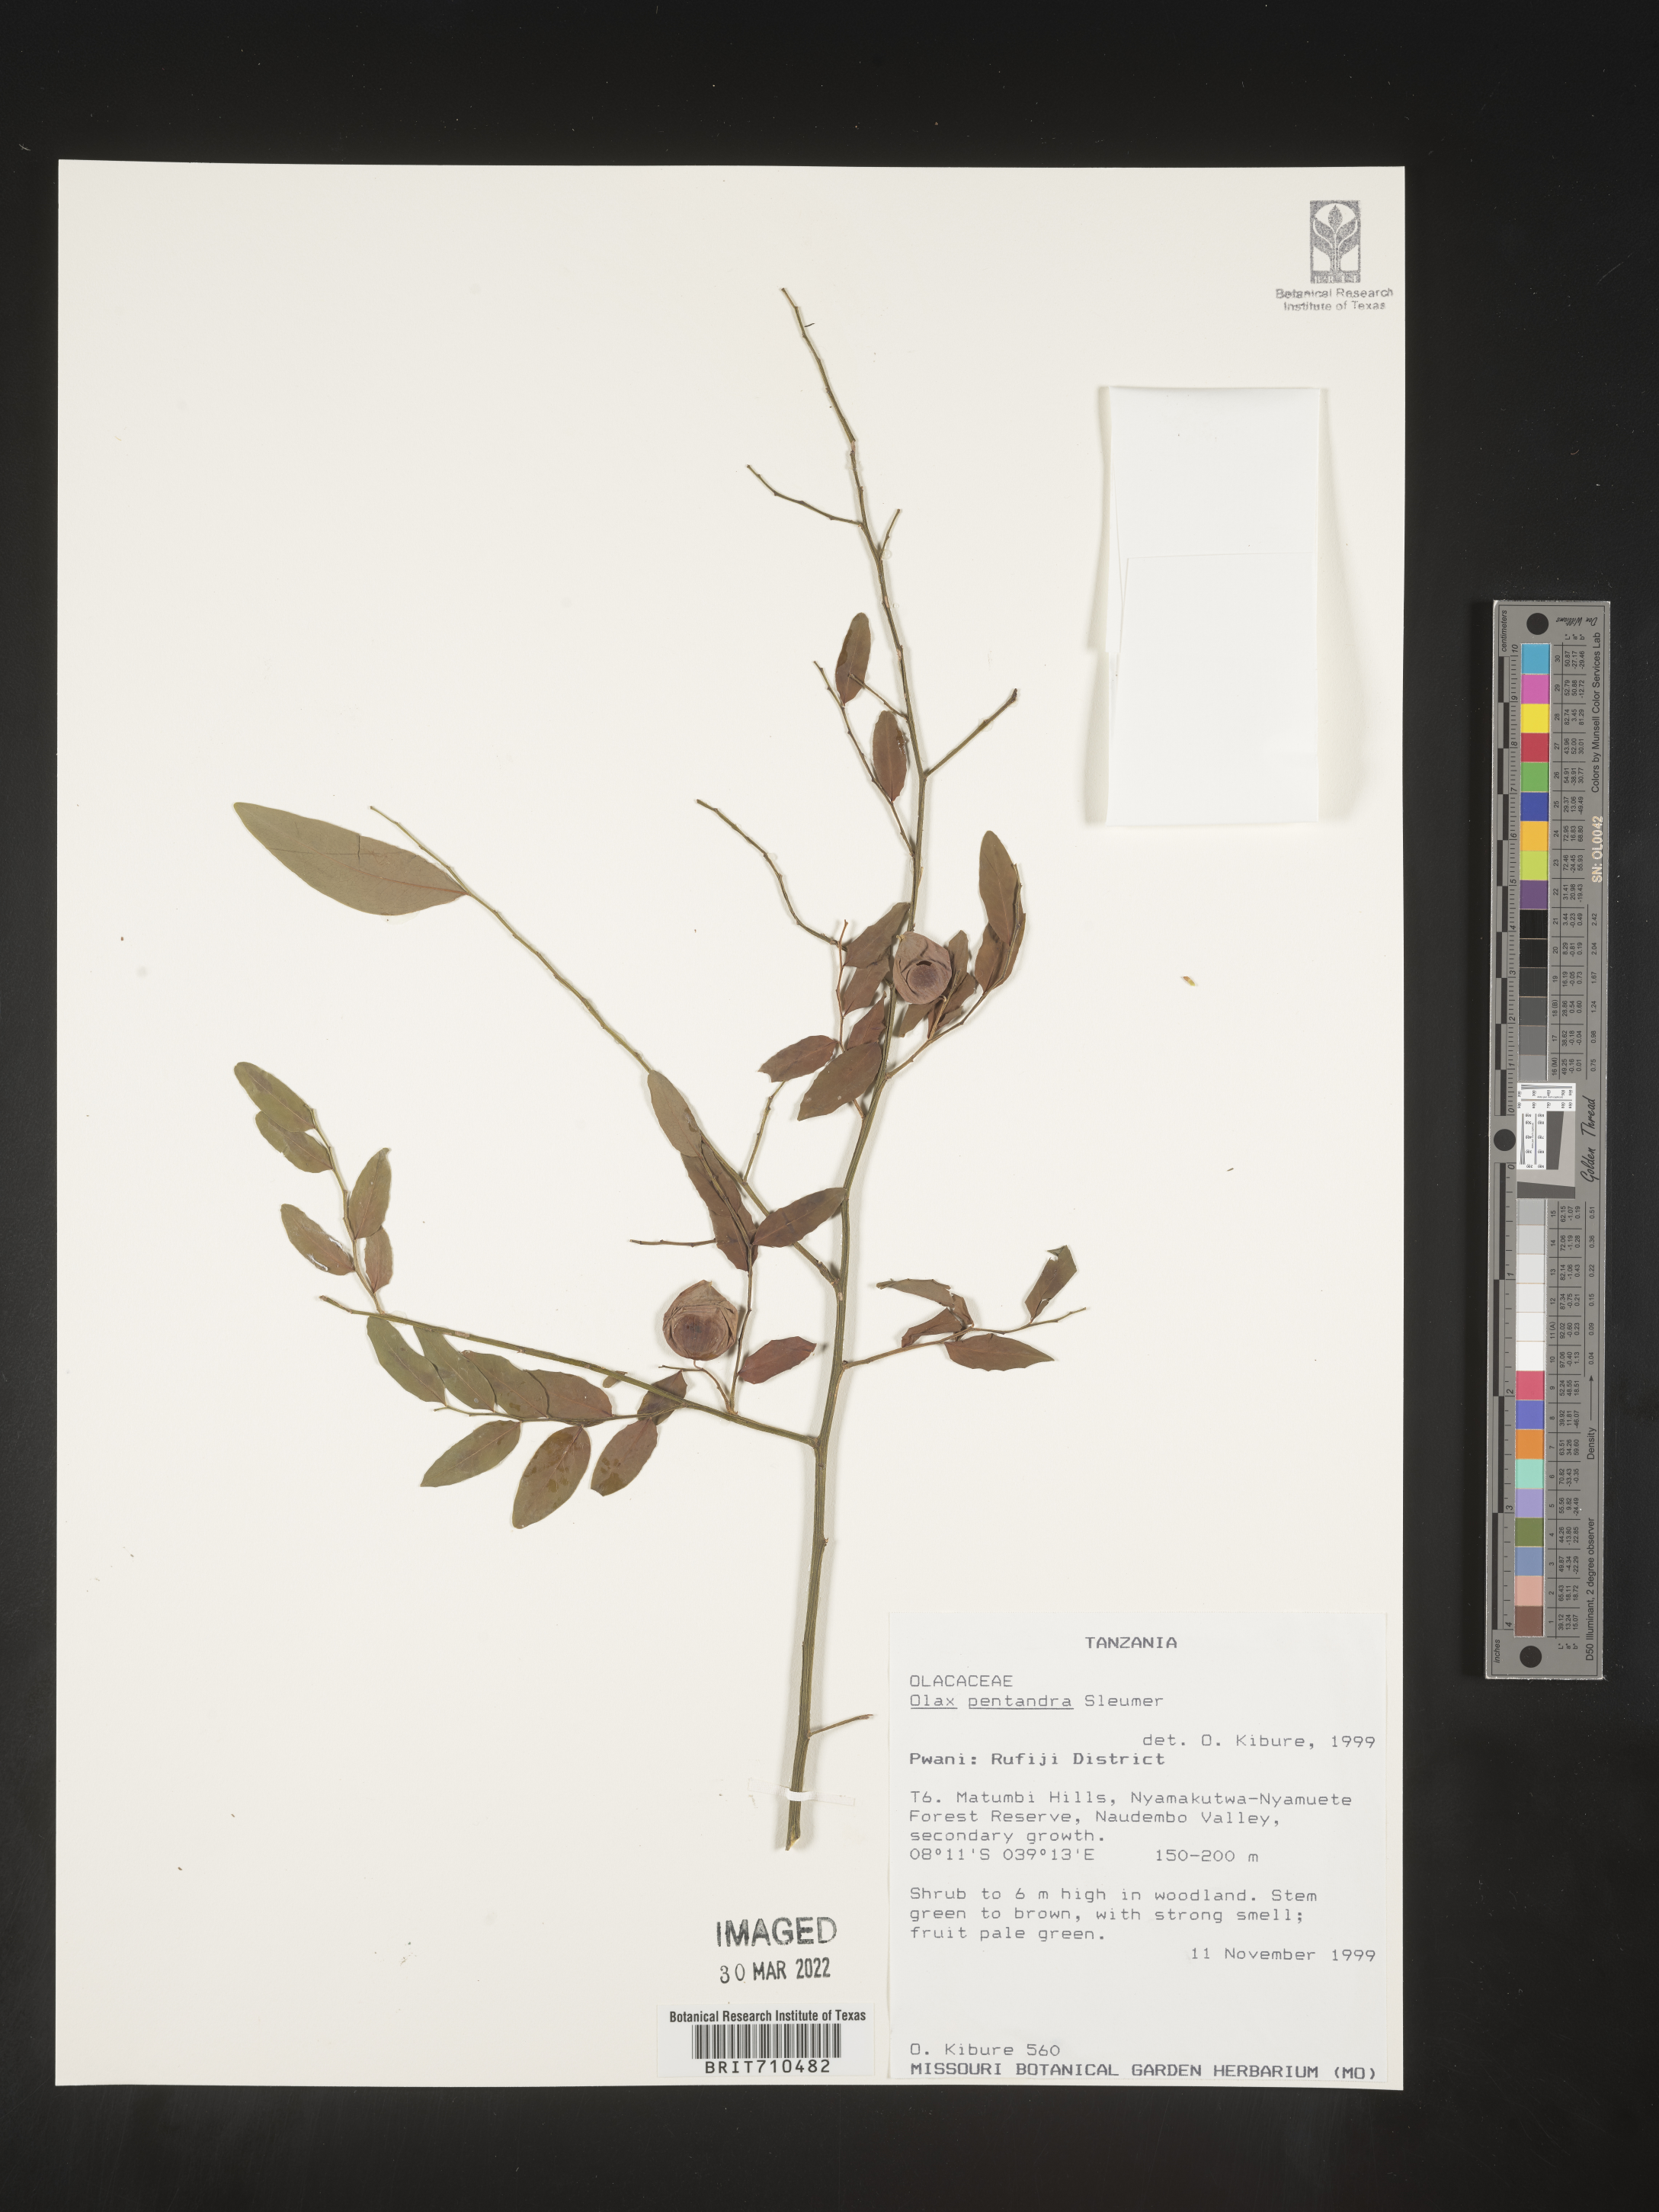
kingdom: Plantae
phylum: Tracheophyta
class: Magnoliopsida
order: Santalales
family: Olacaceae
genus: Olax
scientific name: Olax
